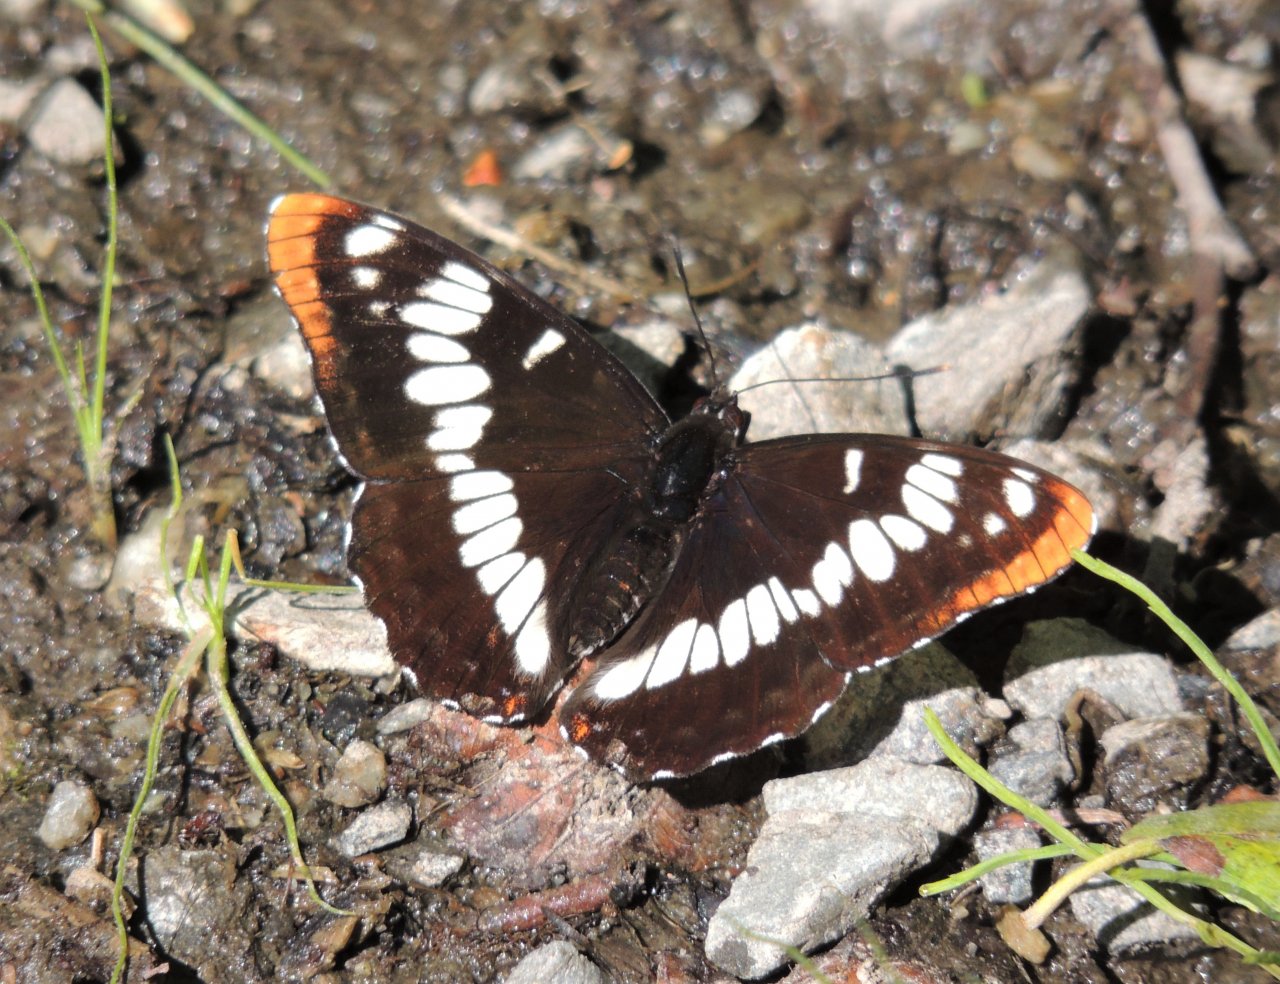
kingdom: Animalia
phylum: Arthropoda
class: Insecta
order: Lepidoptera
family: Nymphalidae
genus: Limenitis
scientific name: Limenitis lorquini
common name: Lorquin's Admiral
